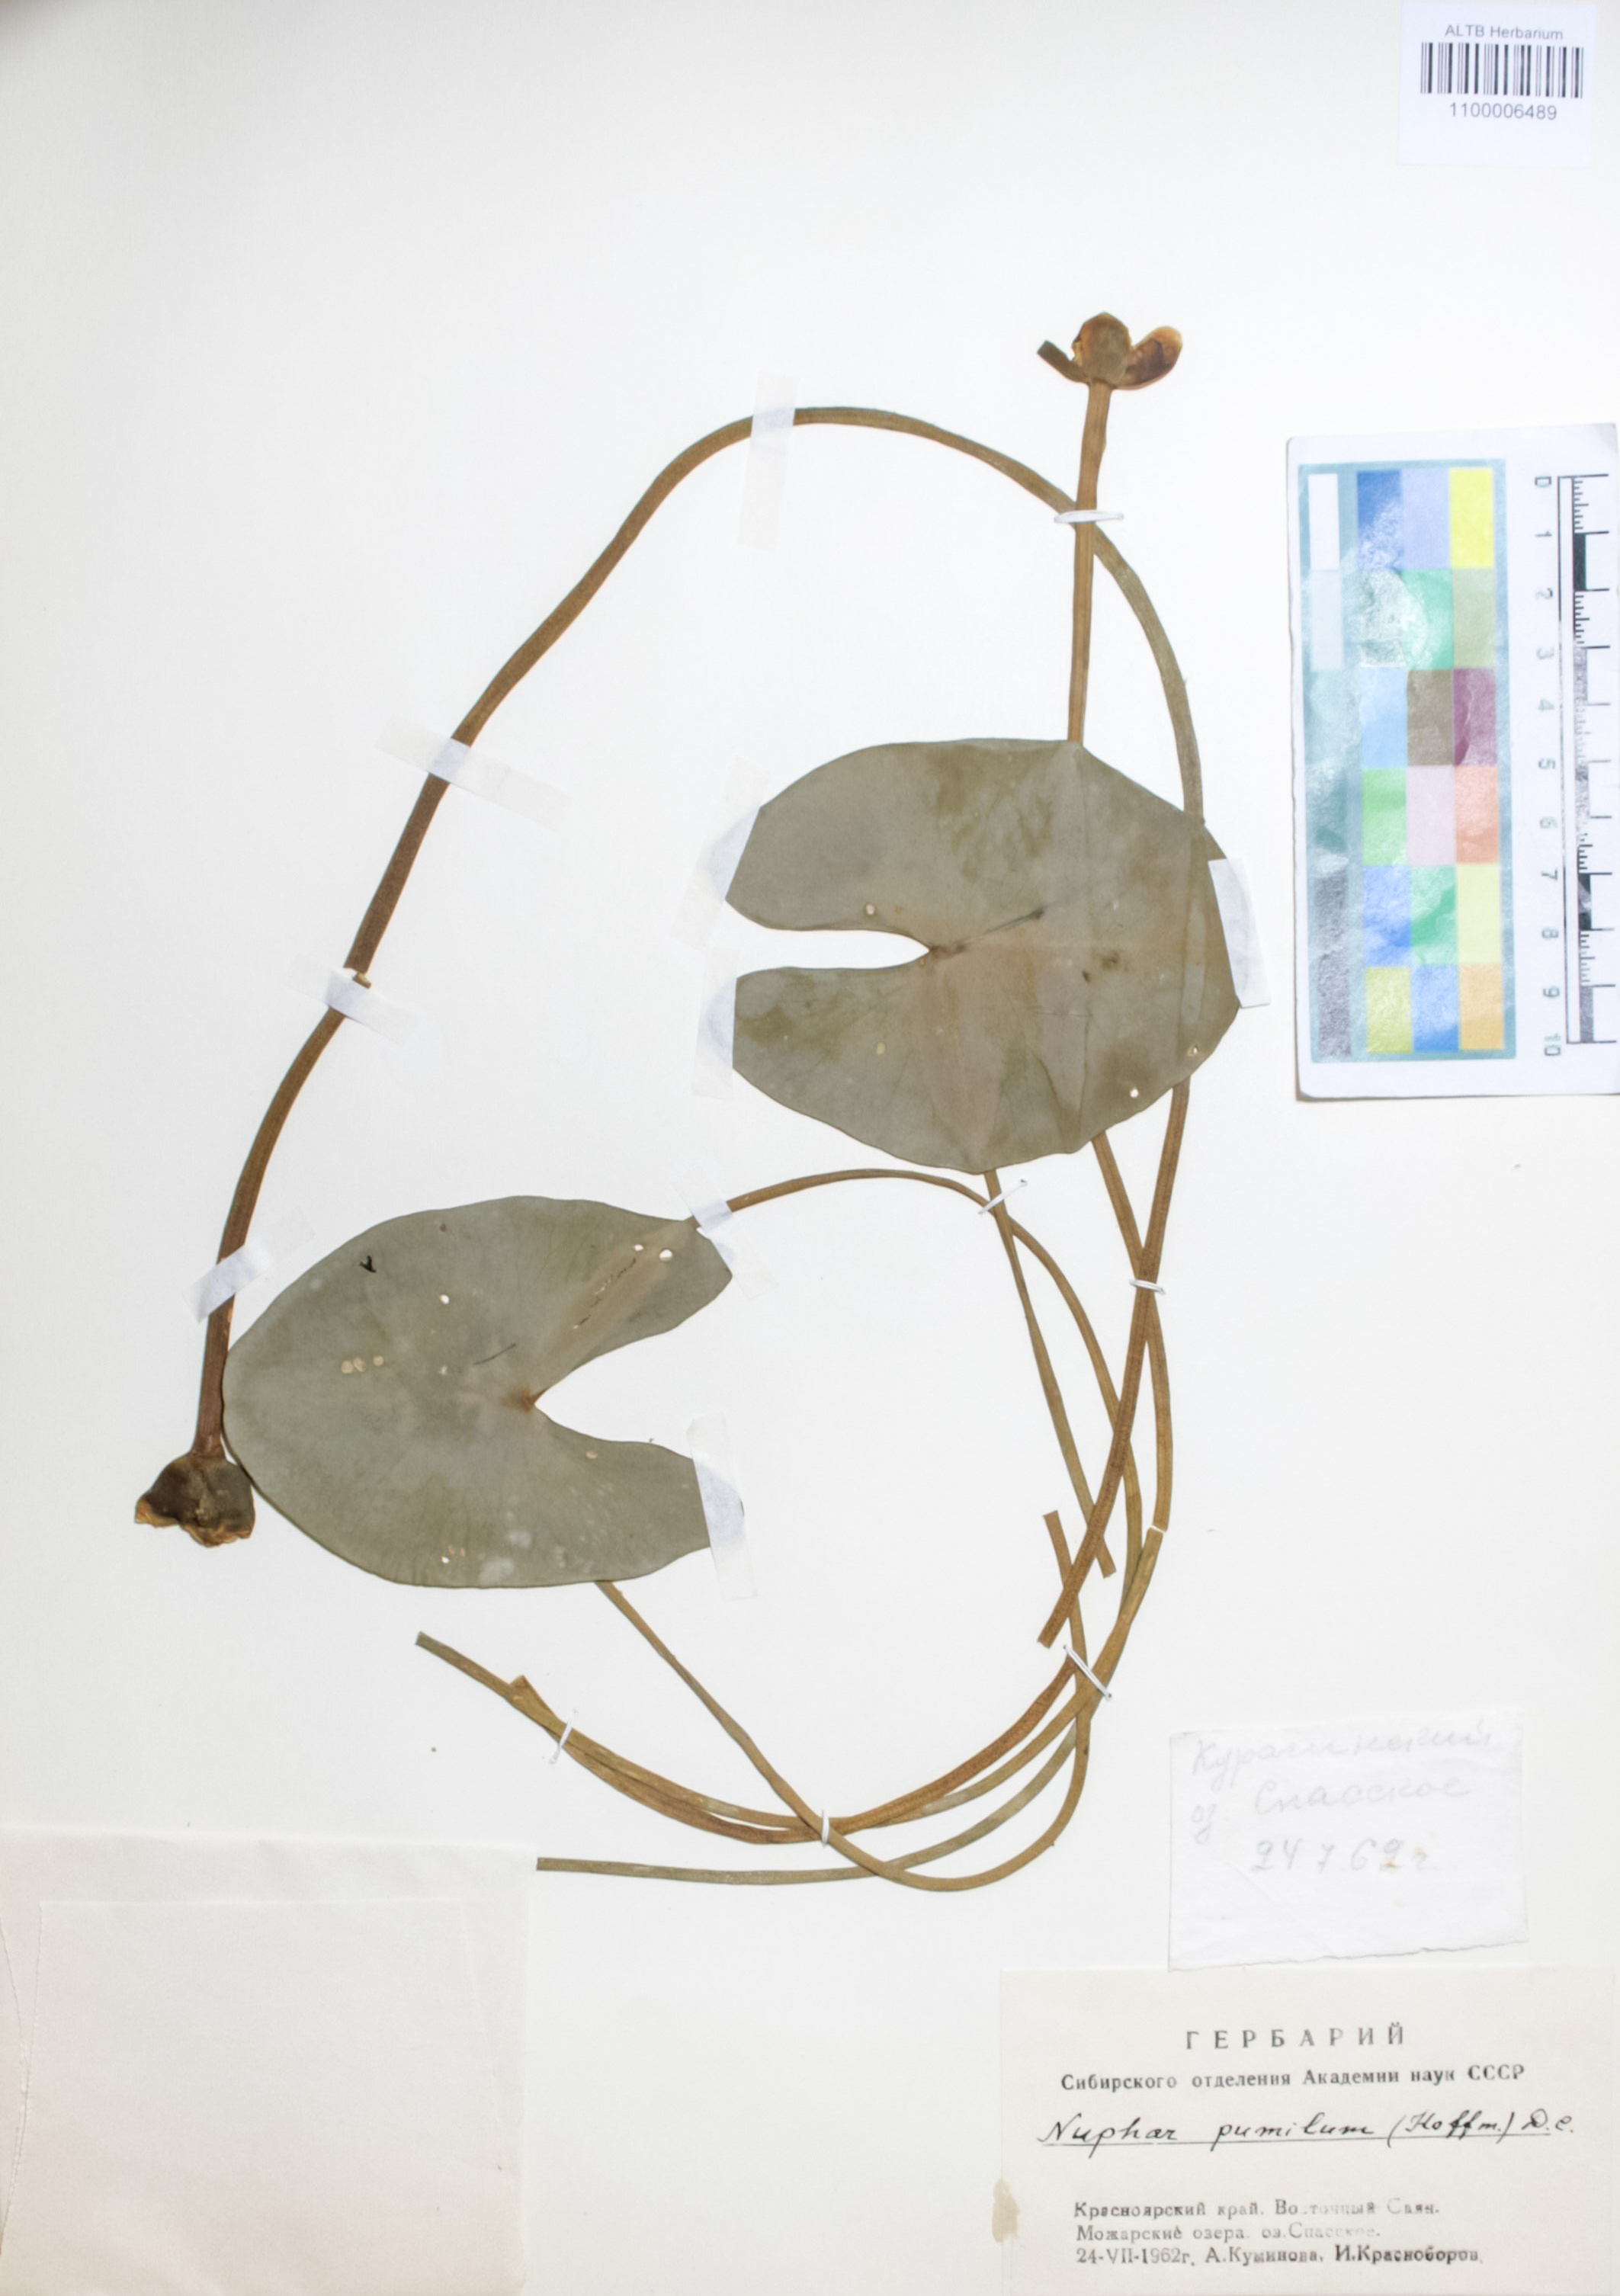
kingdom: Plantae
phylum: Tracheophyta
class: Magnoliopsida
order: Nymphaeales
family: Nymphaeaceae
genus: Nuphar
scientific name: Nuphar pumila
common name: Least water-lily
